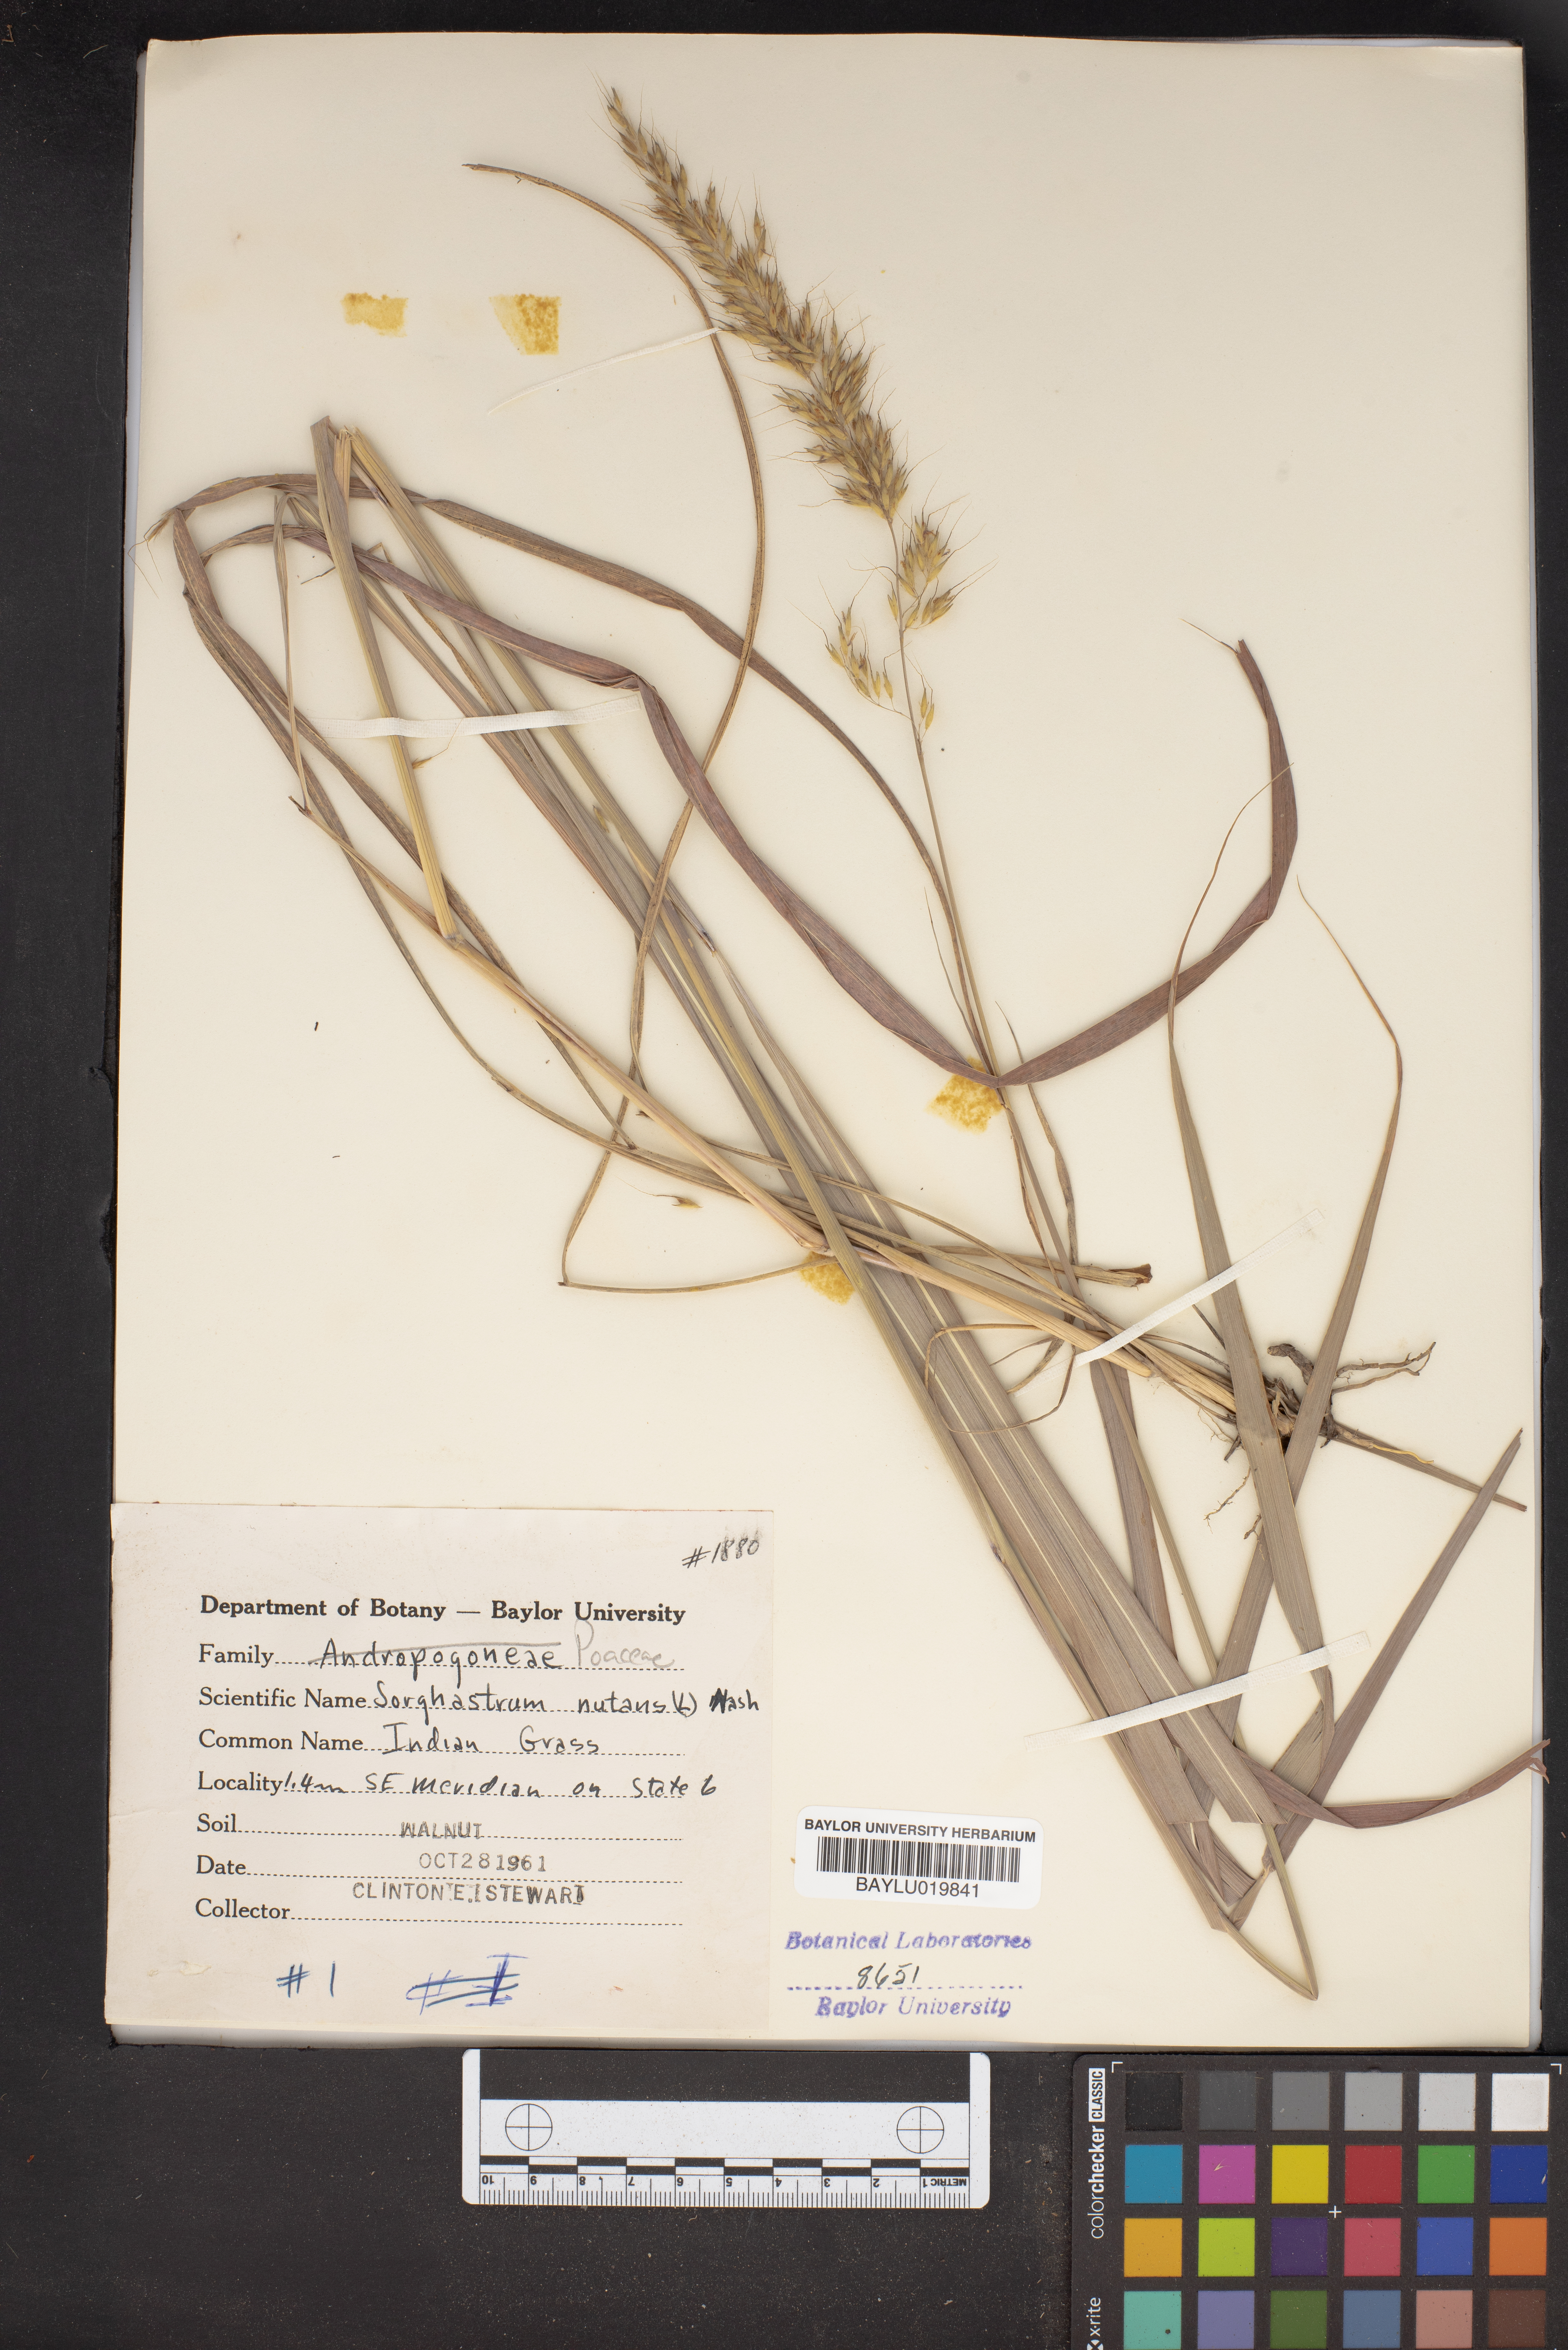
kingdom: Plantae
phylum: Tracheophyta
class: Liliopsida
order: Poales
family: Poaceae
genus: Sorghastrum
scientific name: Sorghastrum nutans
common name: Indian grass
